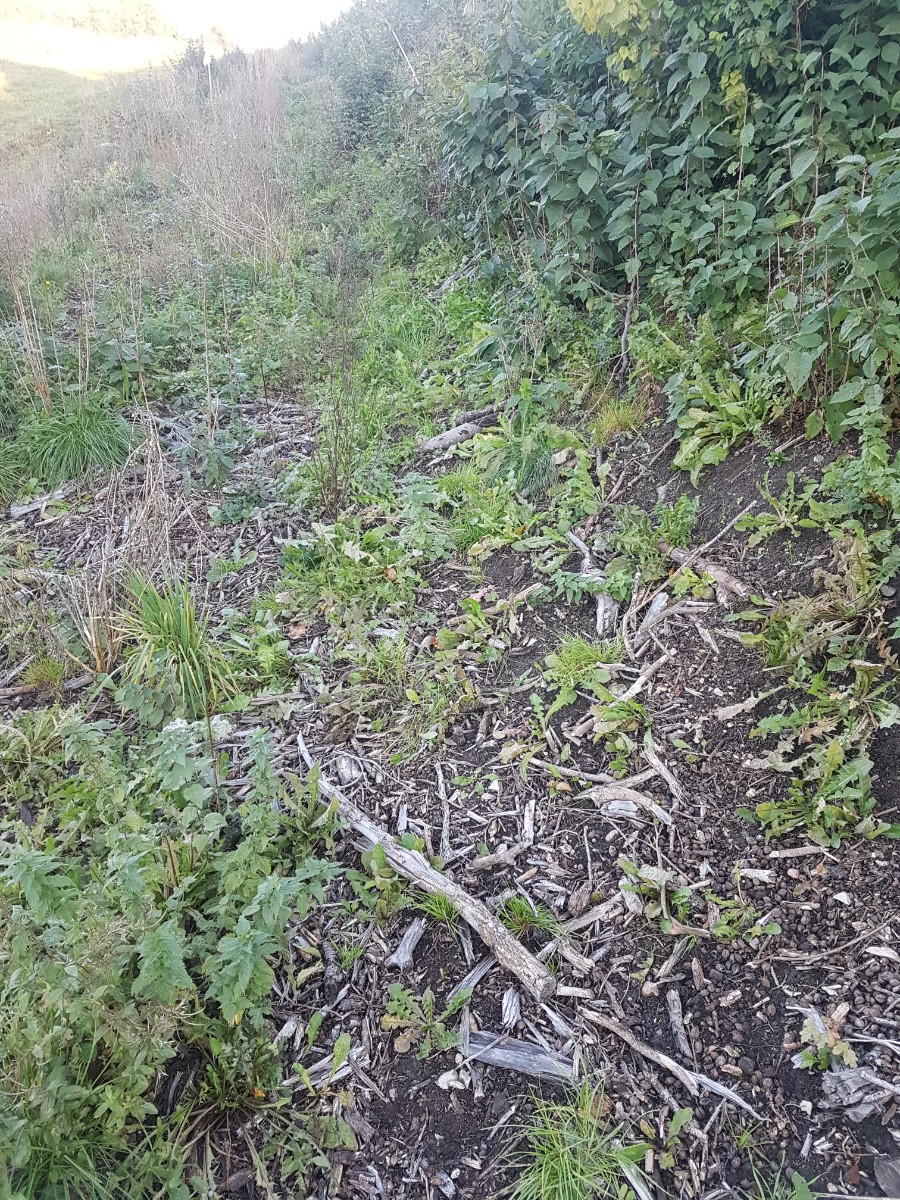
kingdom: Fungi
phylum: Basidiomycota
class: Agaricomycetes
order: Agaricales
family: Strophariaceae
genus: Hypholoma
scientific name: Hypholoma
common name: svovlhat
